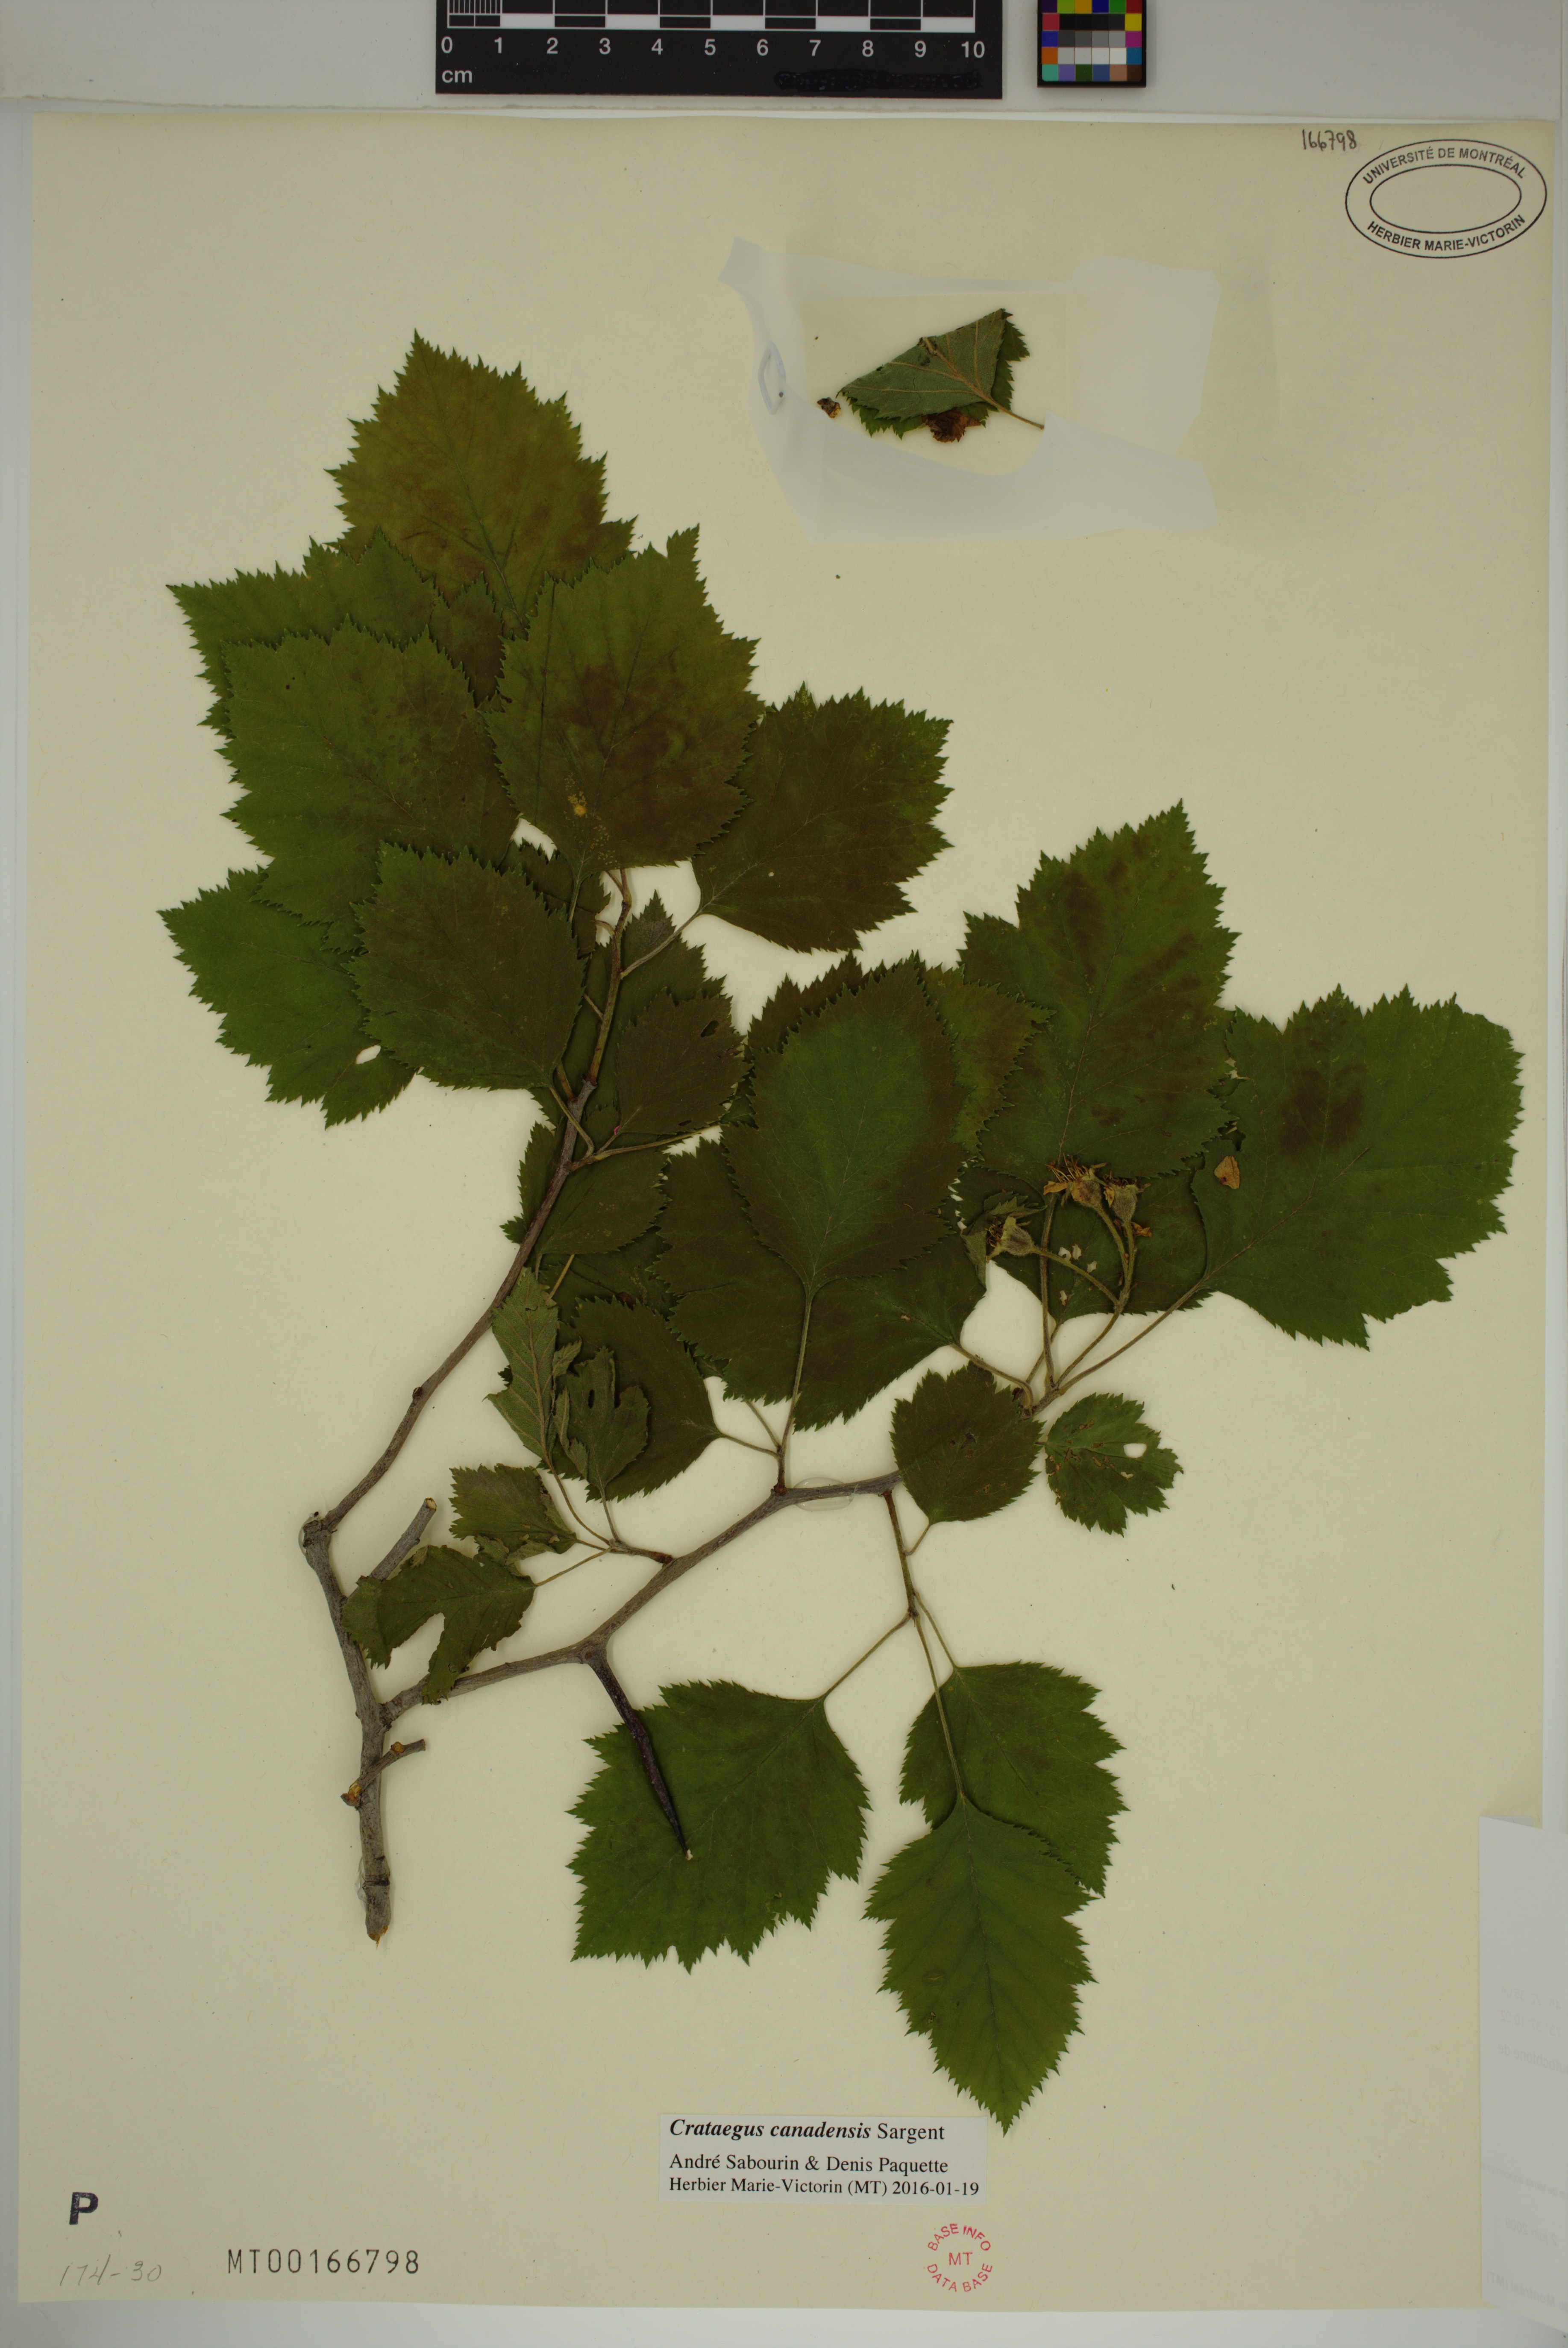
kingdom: Plantae
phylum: Tracheophyta
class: Magnoliopsida
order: Rosales
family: Rosaceae
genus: Crataegus
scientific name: Crataegus submollis
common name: Hairy cockspurthorn
